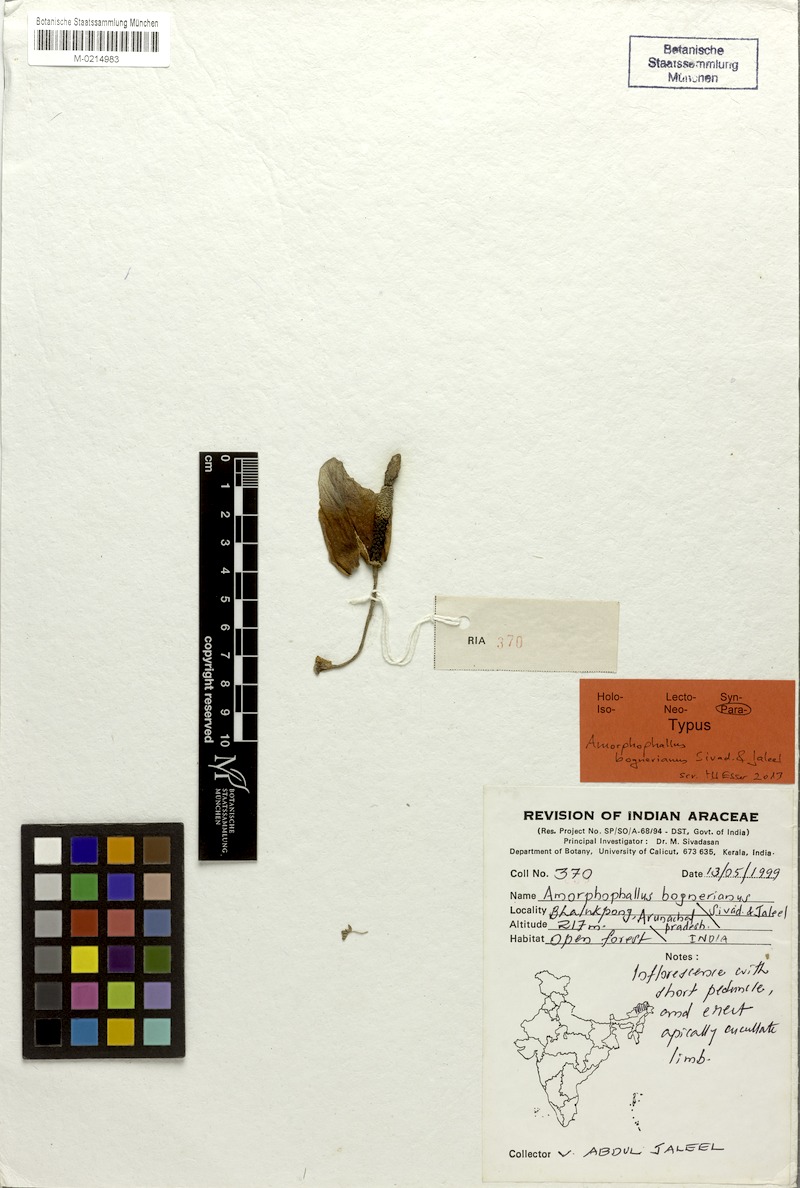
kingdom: Plantae
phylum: Tracheophyta
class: Liliopsida
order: Alismatales
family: Araceae
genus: Amorphophallus
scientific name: Amorphophallus bognerianus
